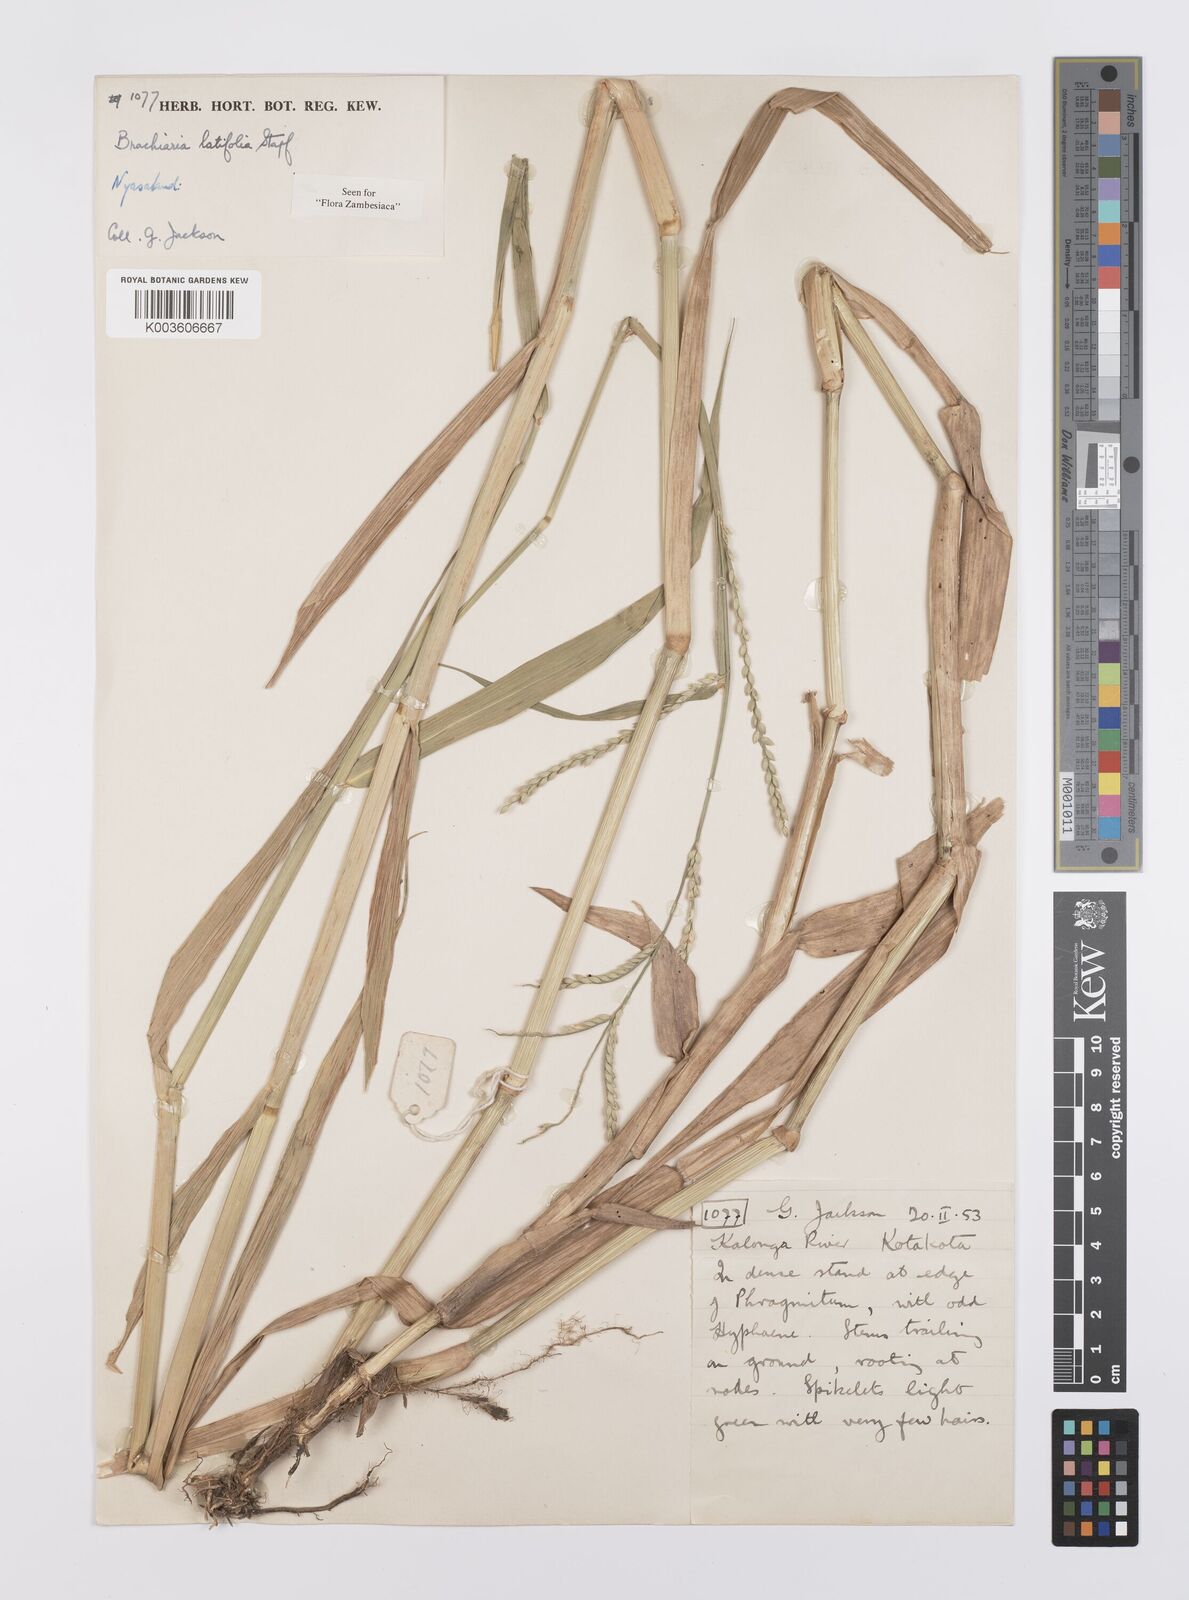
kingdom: Plantae
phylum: Tracheophyta
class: Liliopsida
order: Poales
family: Poaceae
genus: Urochloa
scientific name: Urochloa arrecta
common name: African signalgrass
